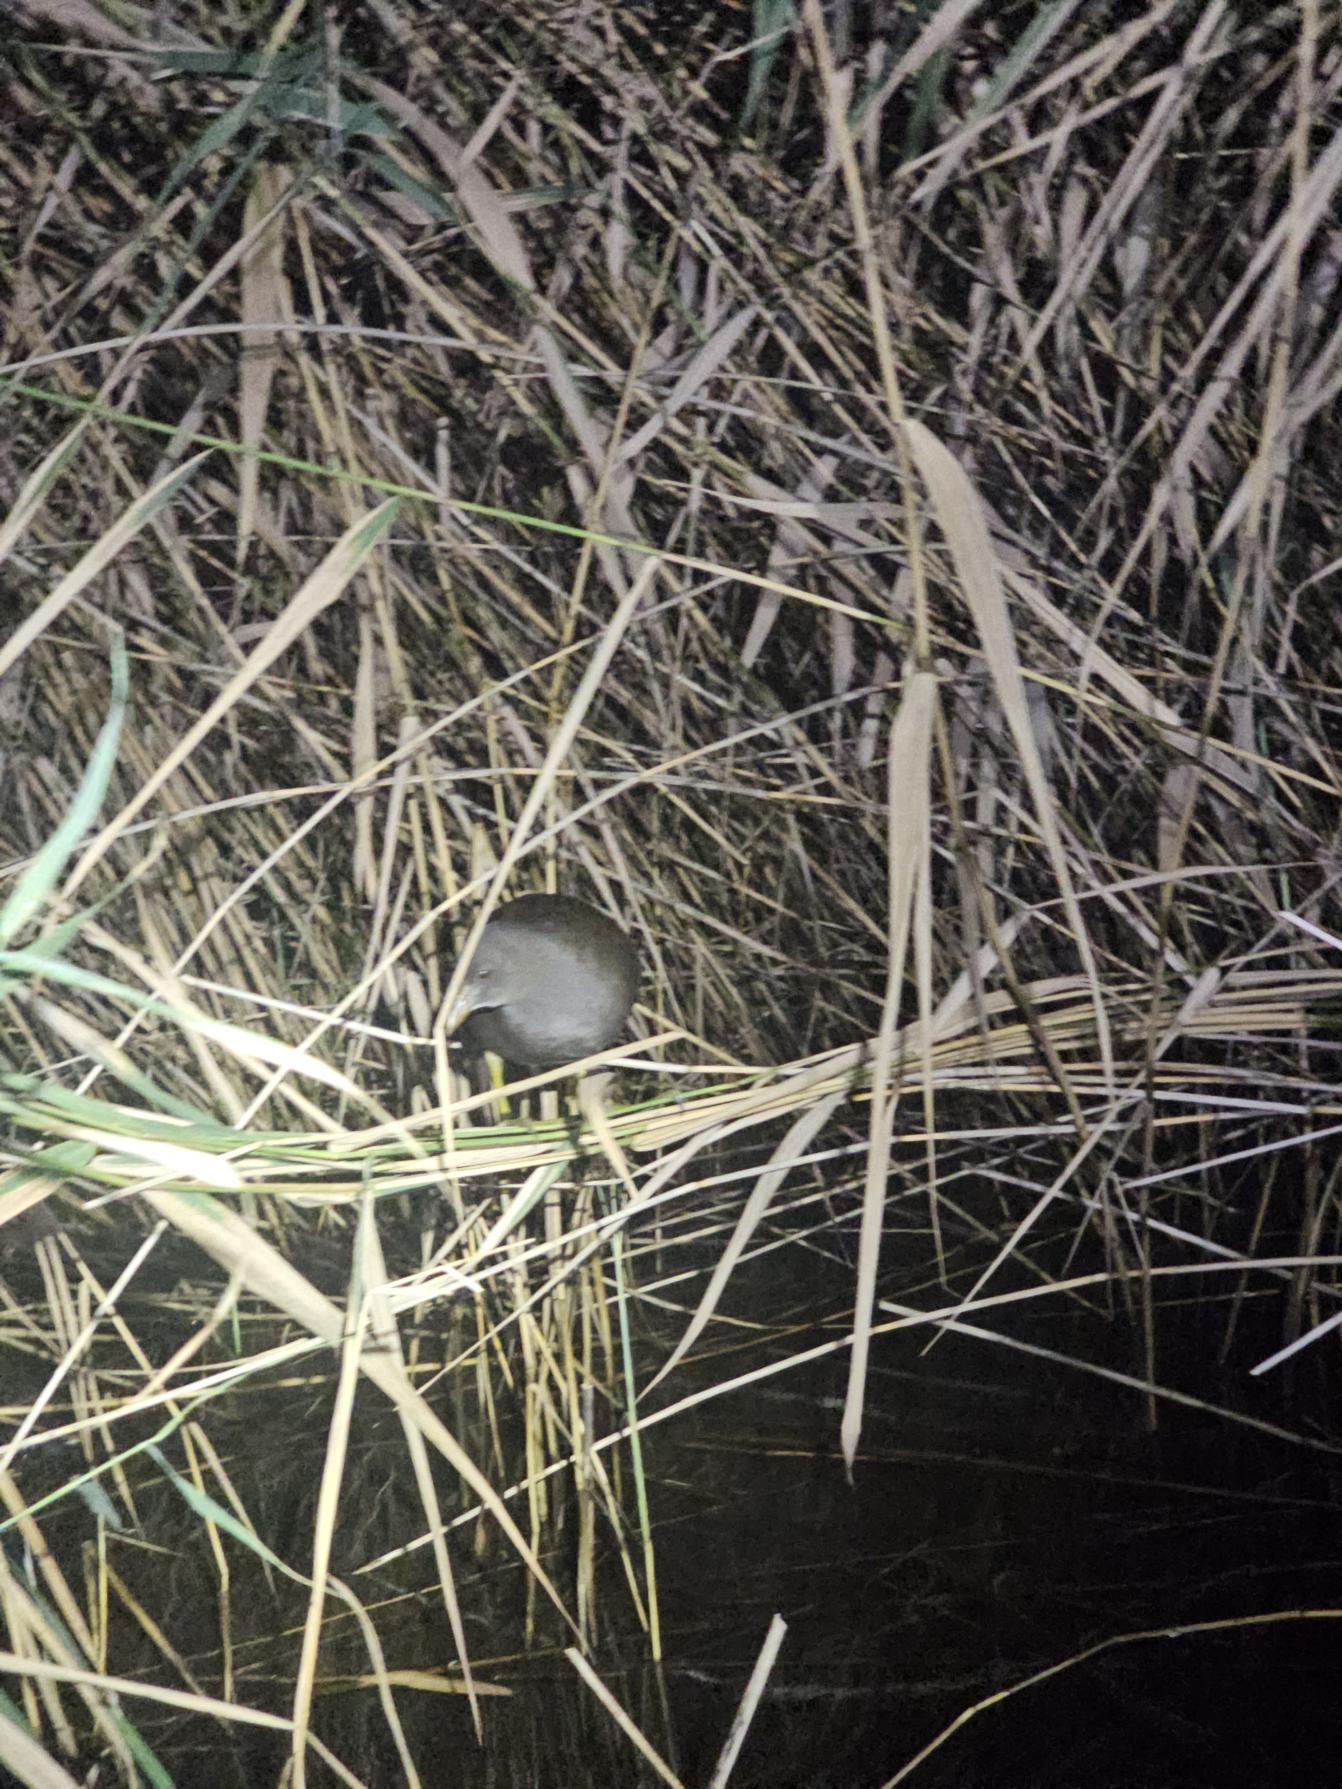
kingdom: Animalia
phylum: Chordata
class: Aves
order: Gruiformes
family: Rallidae
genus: Gallinula
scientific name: Gallinula chloropus
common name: Grønbenet rørhøne
